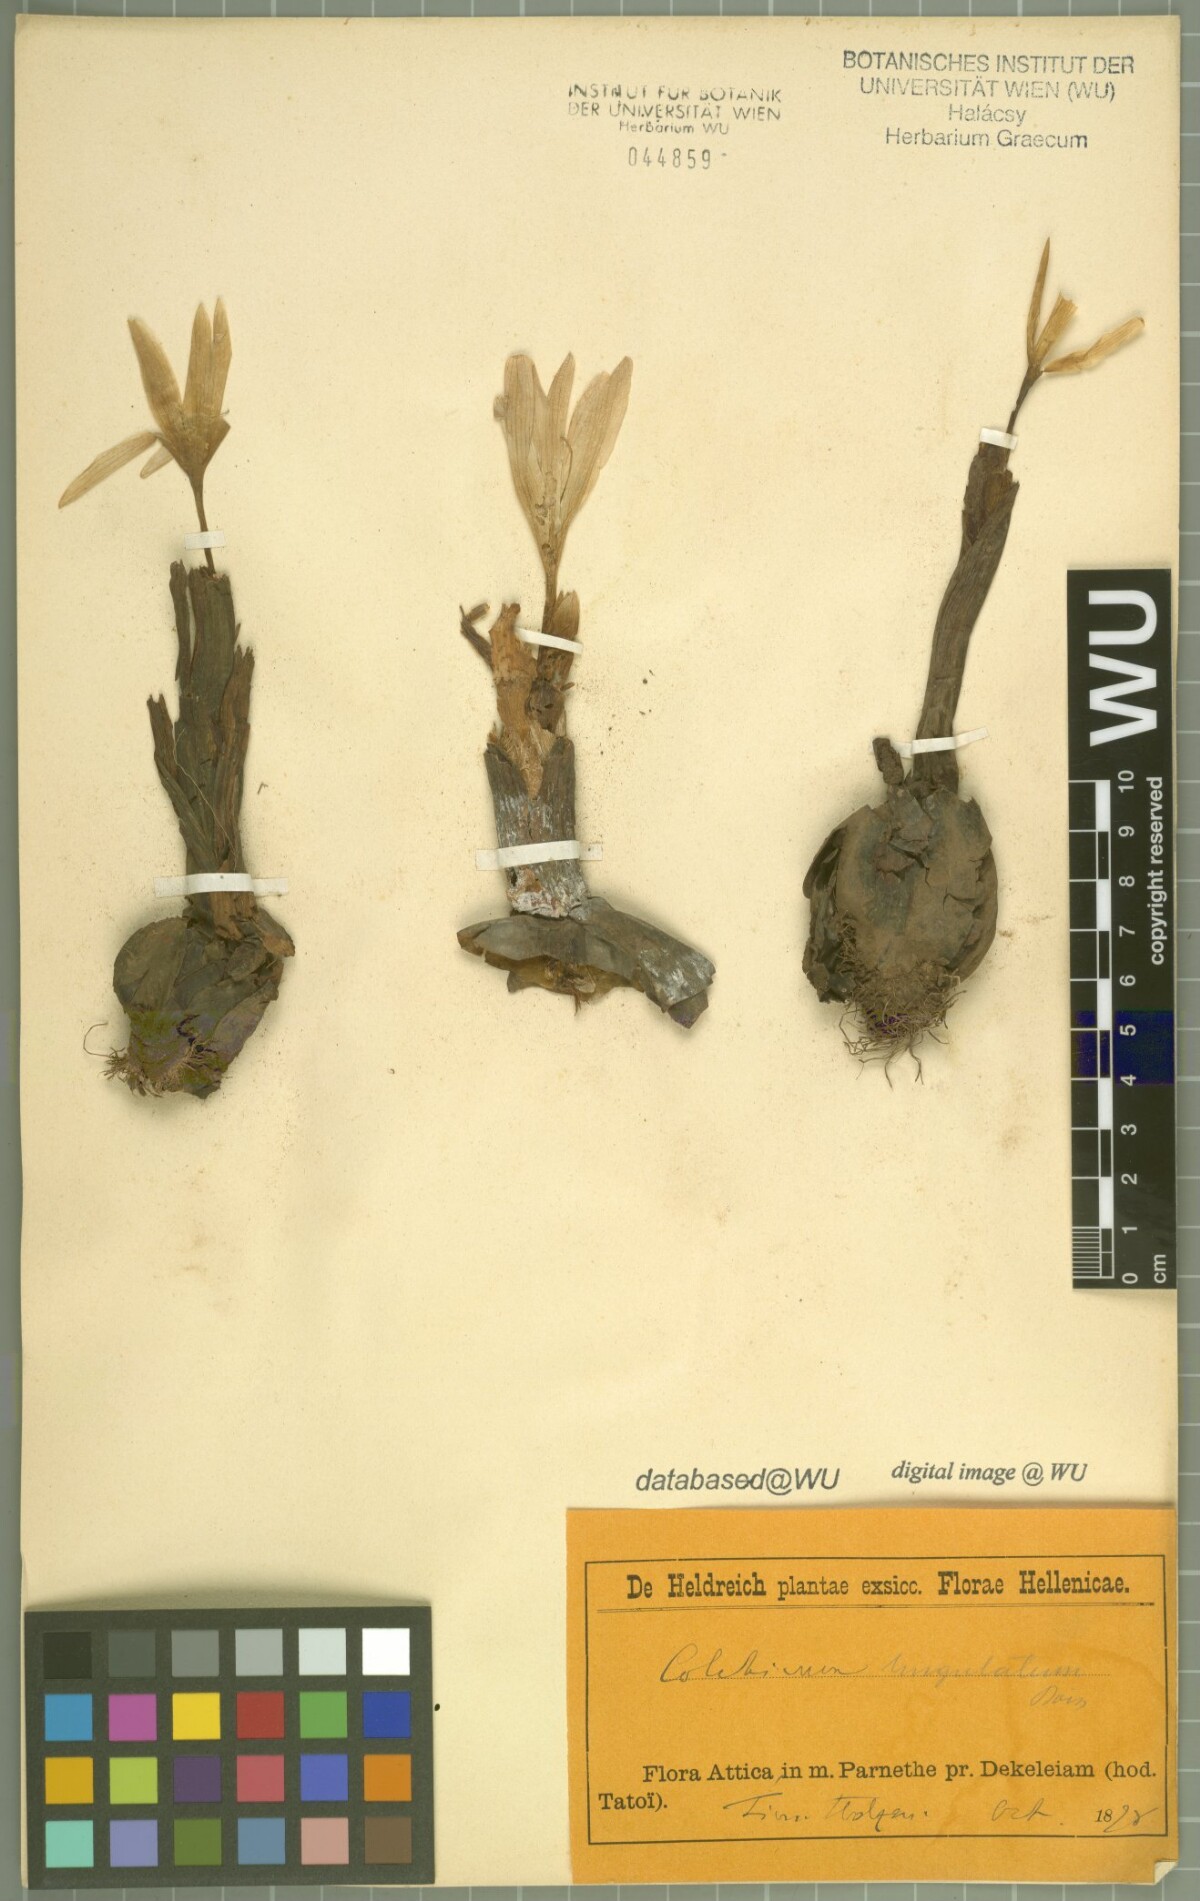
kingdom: Plantae
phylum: Tracheophyta
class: Liliopsida
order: Liliales
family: Colchicaceae
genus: Colchicum
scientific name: Colchicum lingulatum
